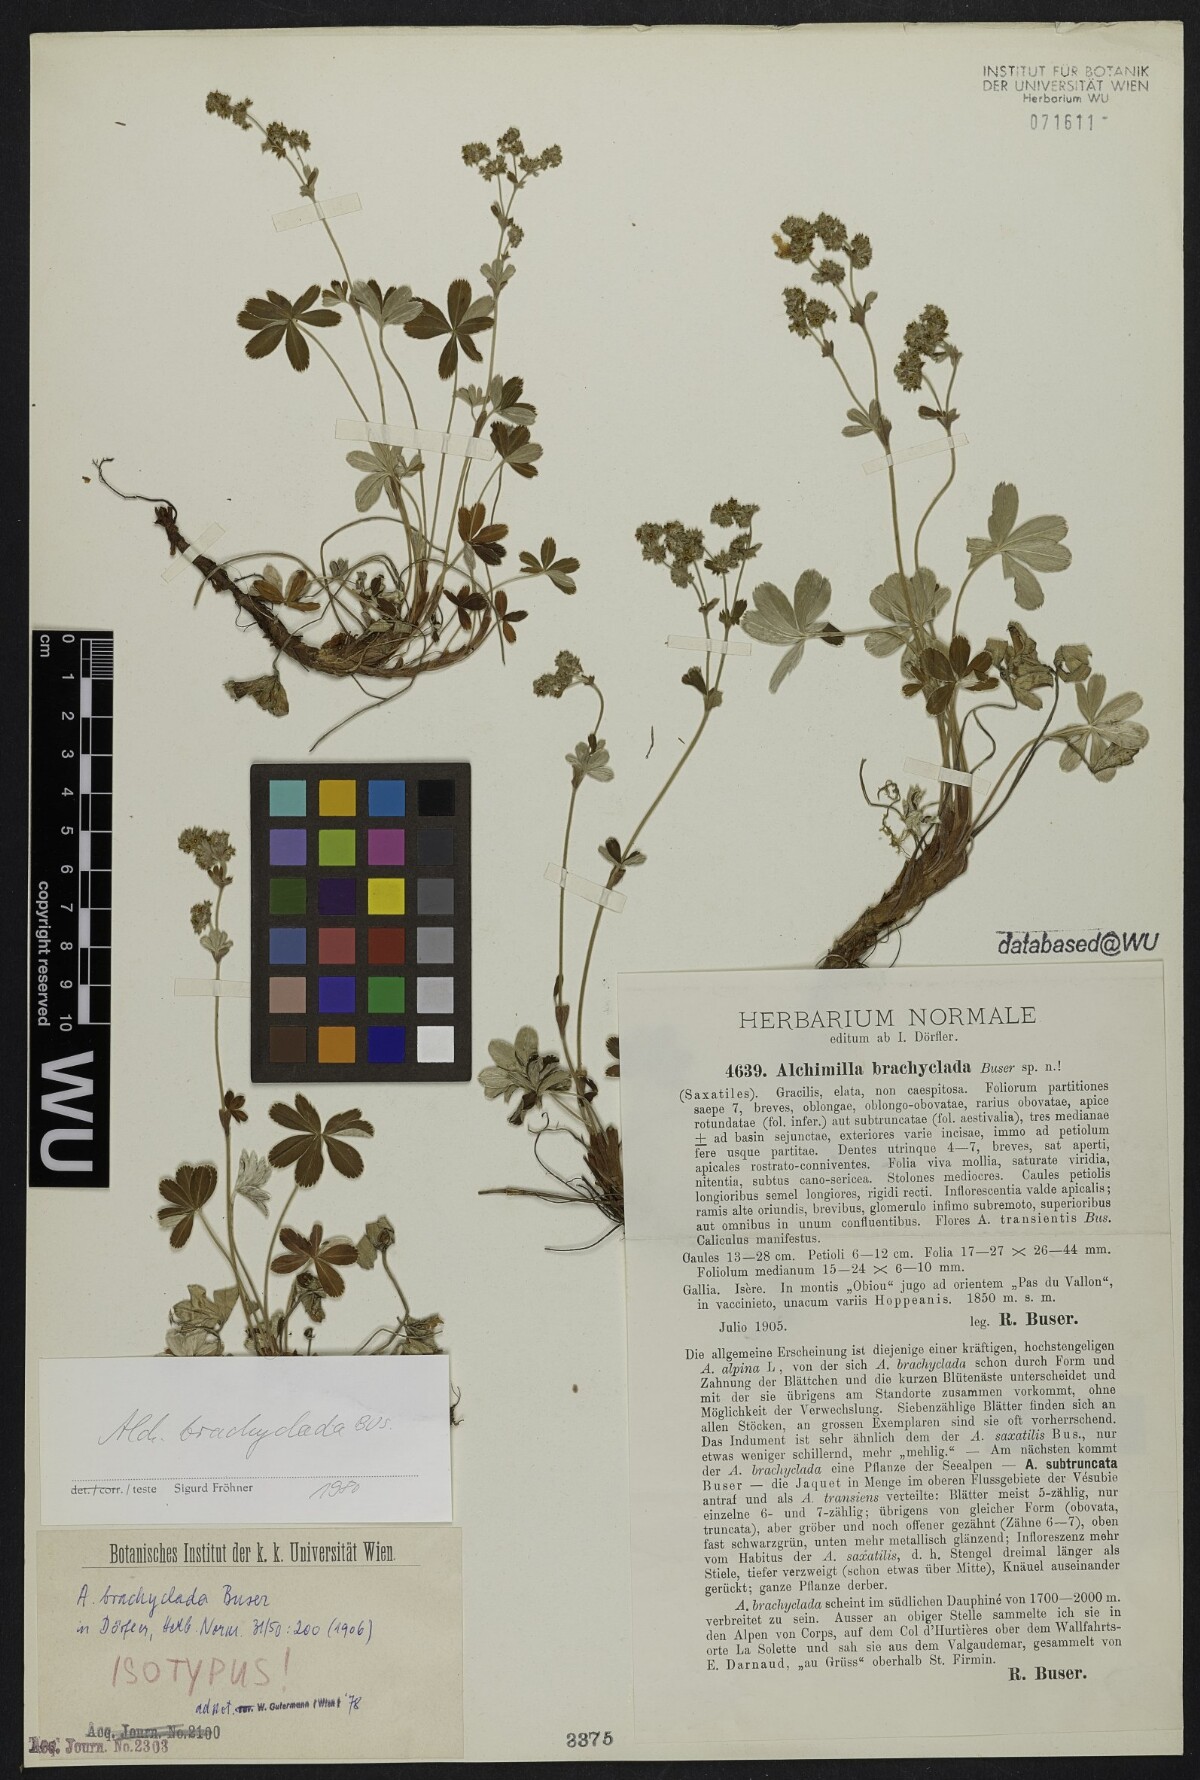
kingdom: Plantae
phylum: Tracheophyta
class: Magnoliopsida
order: Rosales
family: Rosaceae
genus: Alchemilla
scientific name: Alchemilla transiens
